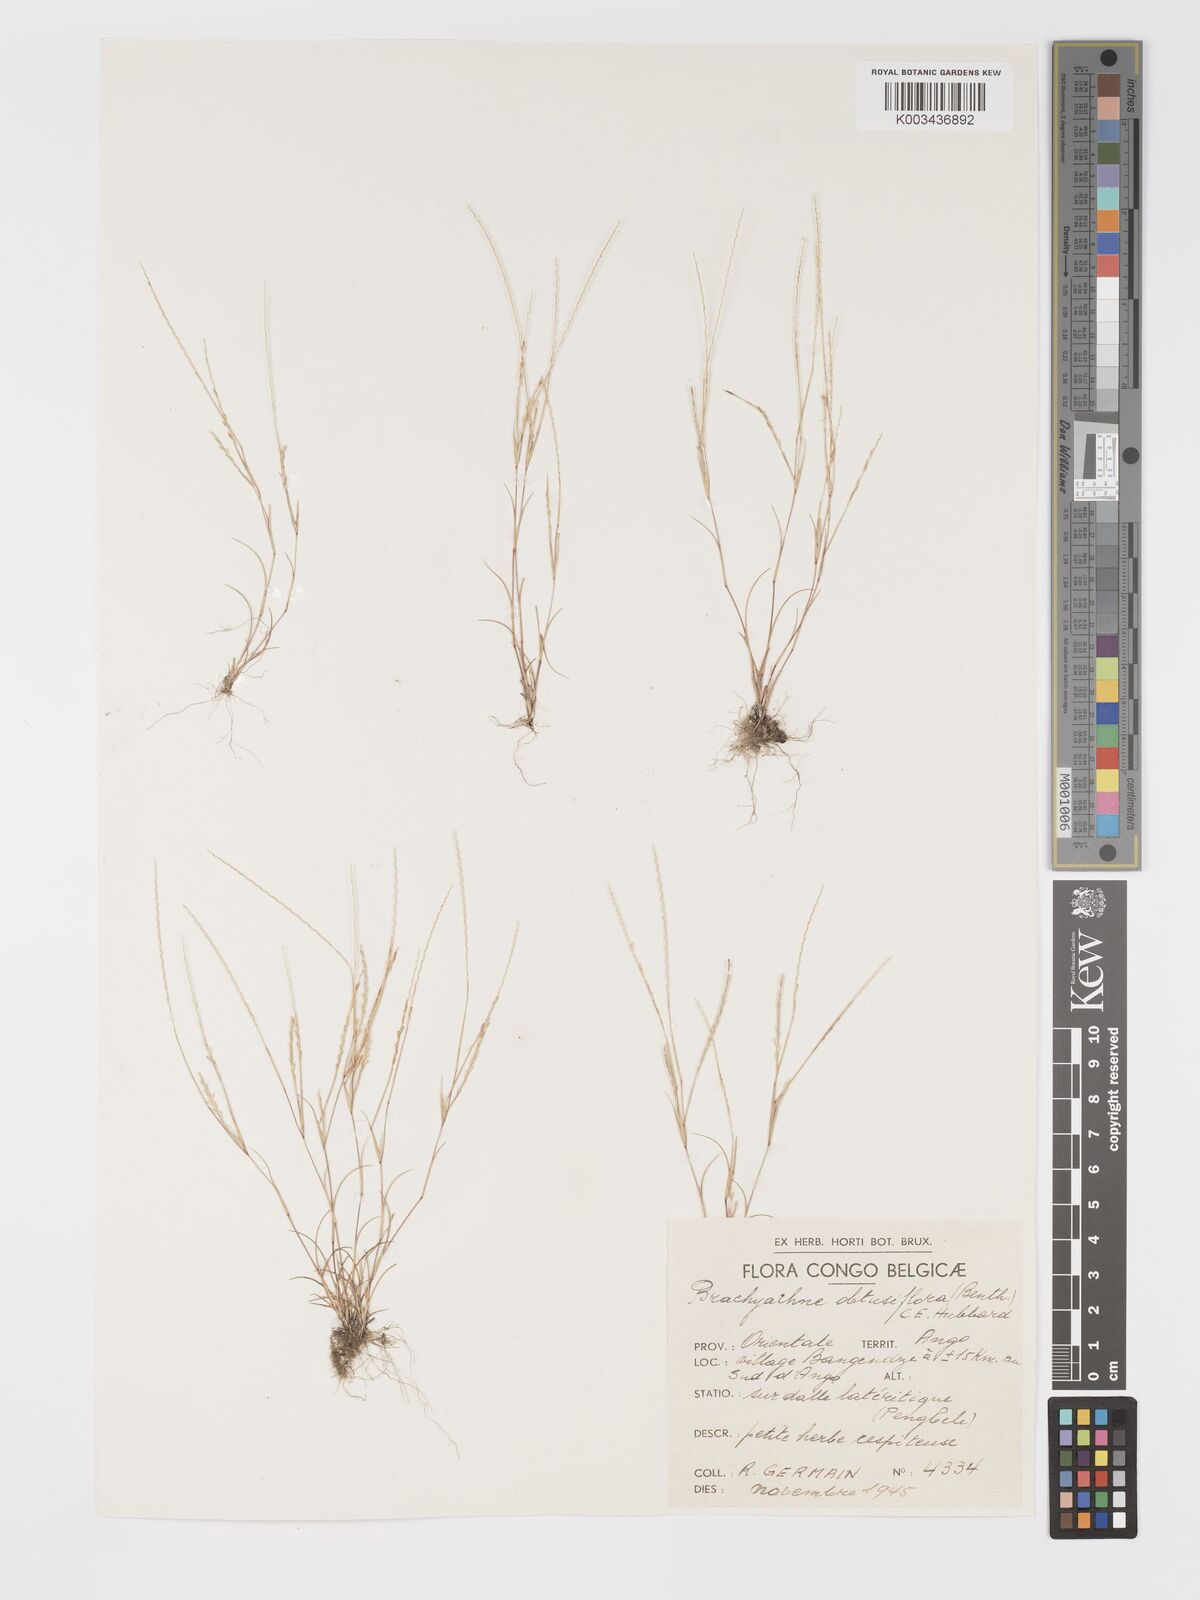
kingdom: Plantae
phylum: Tracheophyta
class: Liliopsida
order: Poales
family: Poaceae
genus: Micrachne
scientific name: Micrachne obtusiflora
